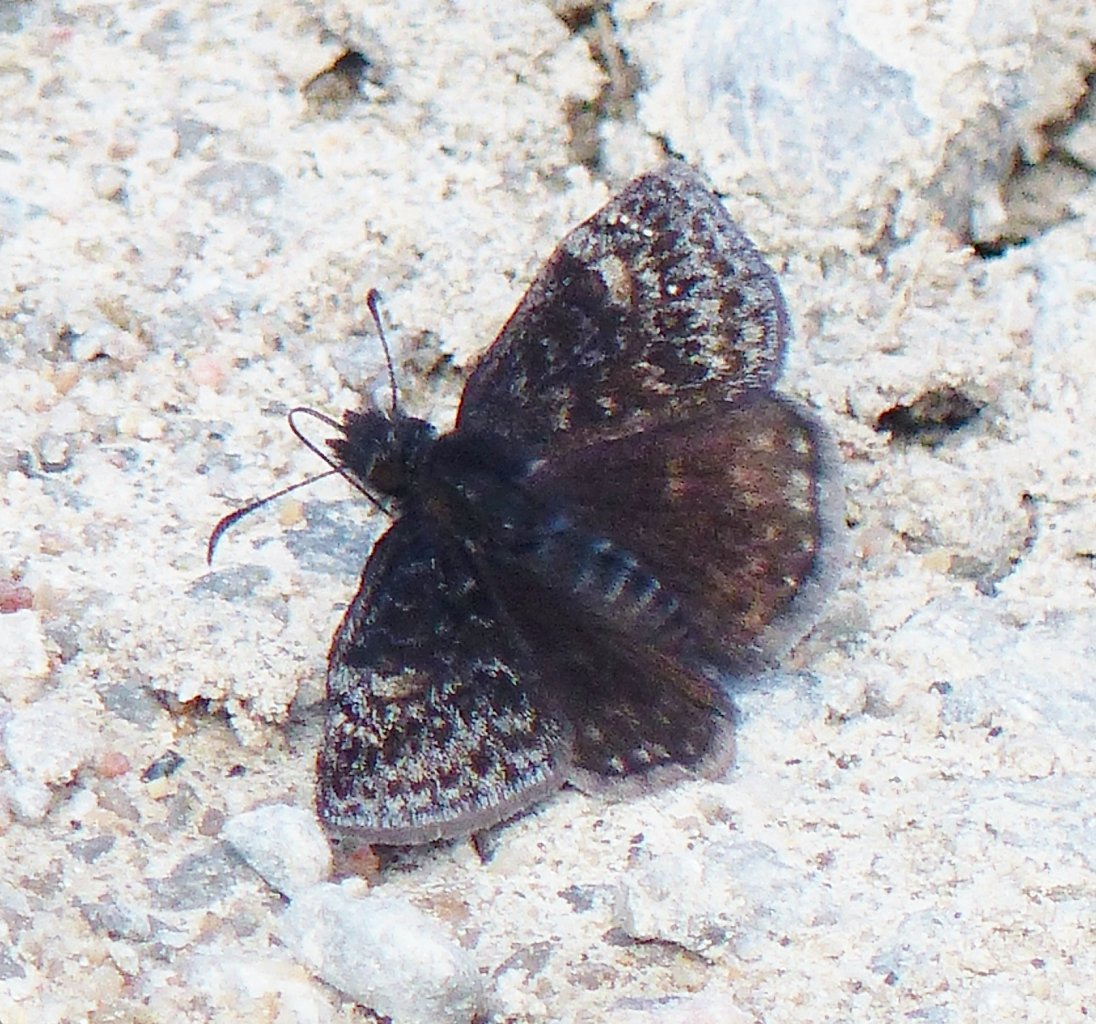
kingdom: Animalia
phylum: Arthropoda
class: Insecta
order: Lepidoptera
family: Hesperiidae
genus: Gesta
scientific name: Gesta
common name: Columbine Duskywing
